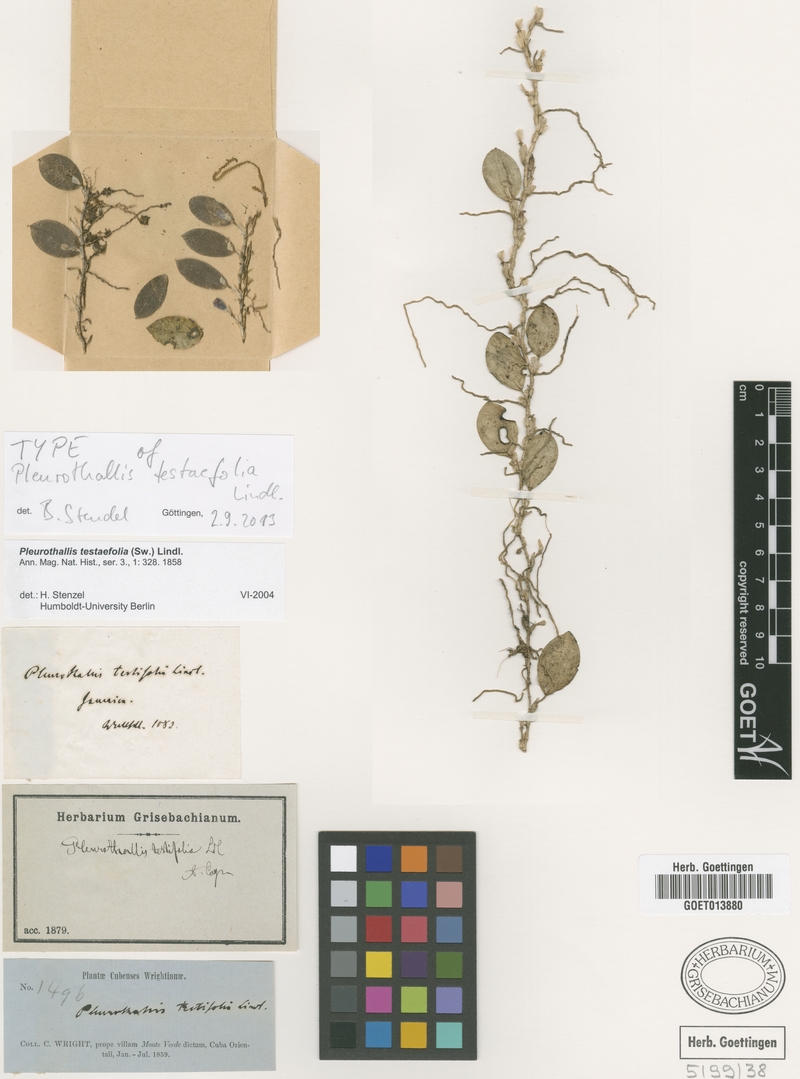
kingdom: Plantae
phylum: Tracheophyta
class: Liliopsida
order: Asparagales
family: Orchidaceae
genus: Acianthera
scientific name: Acianthera testifolia
